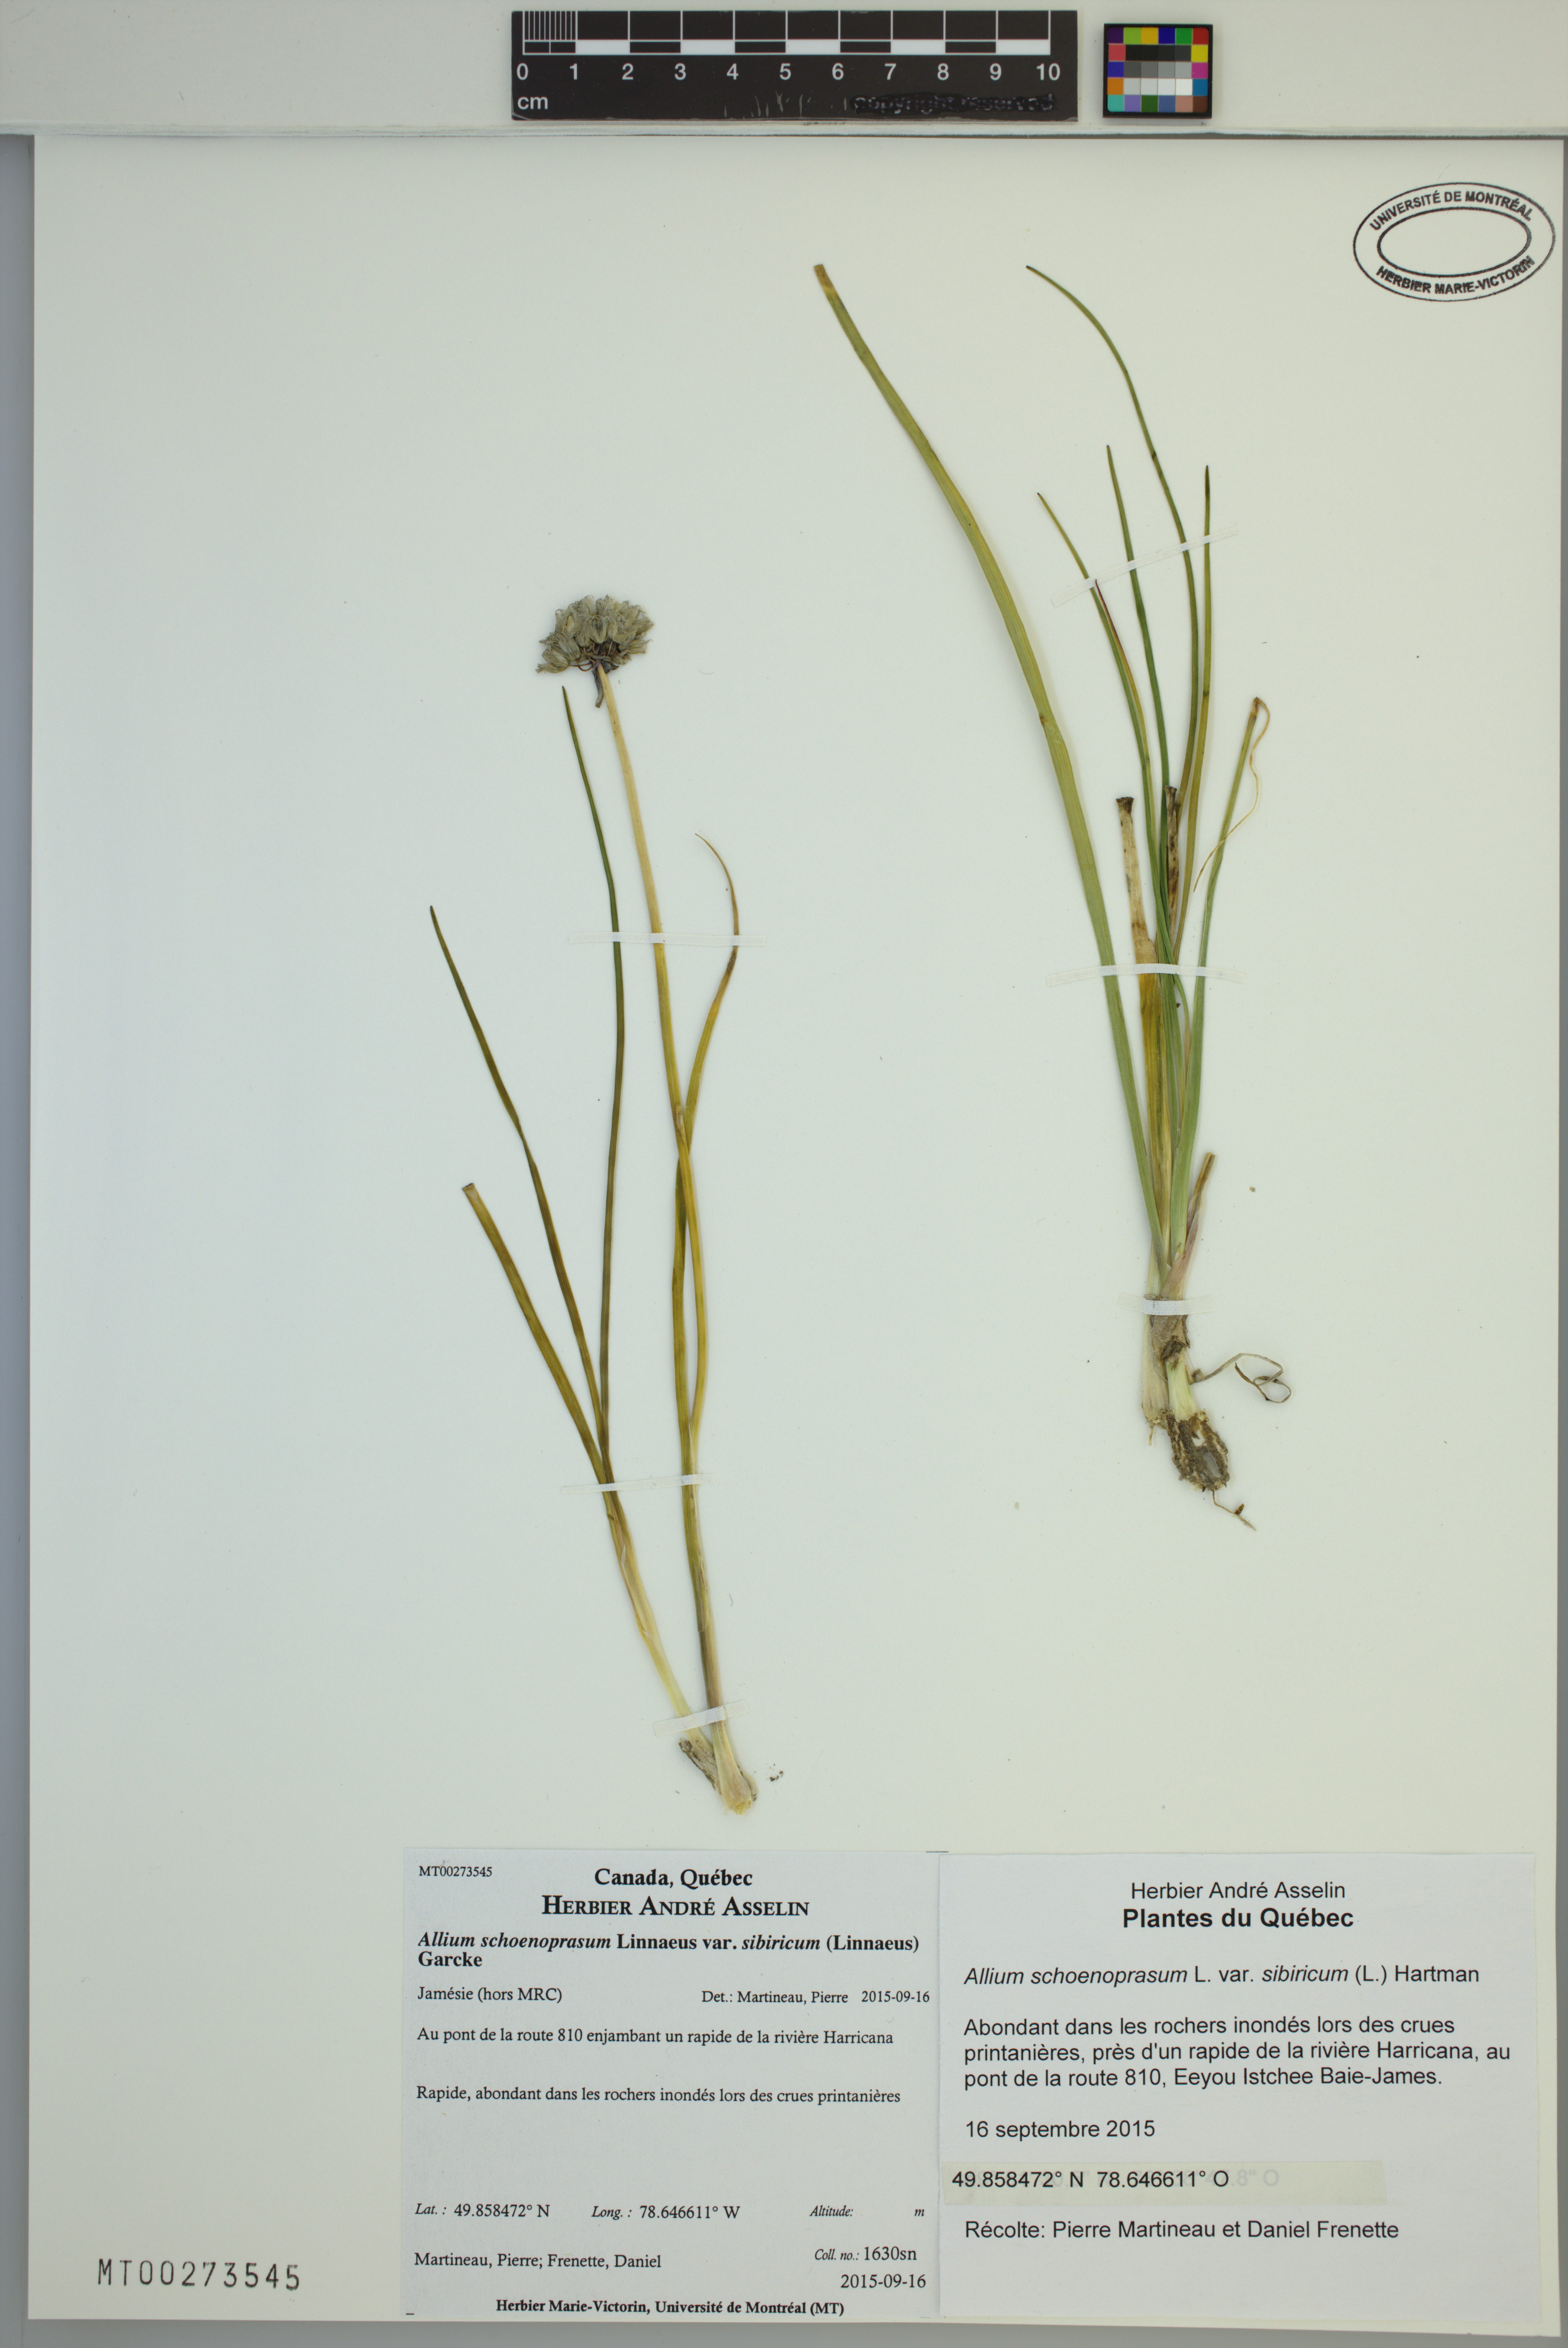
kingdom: Plantae
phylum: Tracheophyta
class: Liliopsida
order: Asparagales
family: Amaryllidaceae
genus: Allium
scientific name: Allium schoenoprasum
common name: Chives
